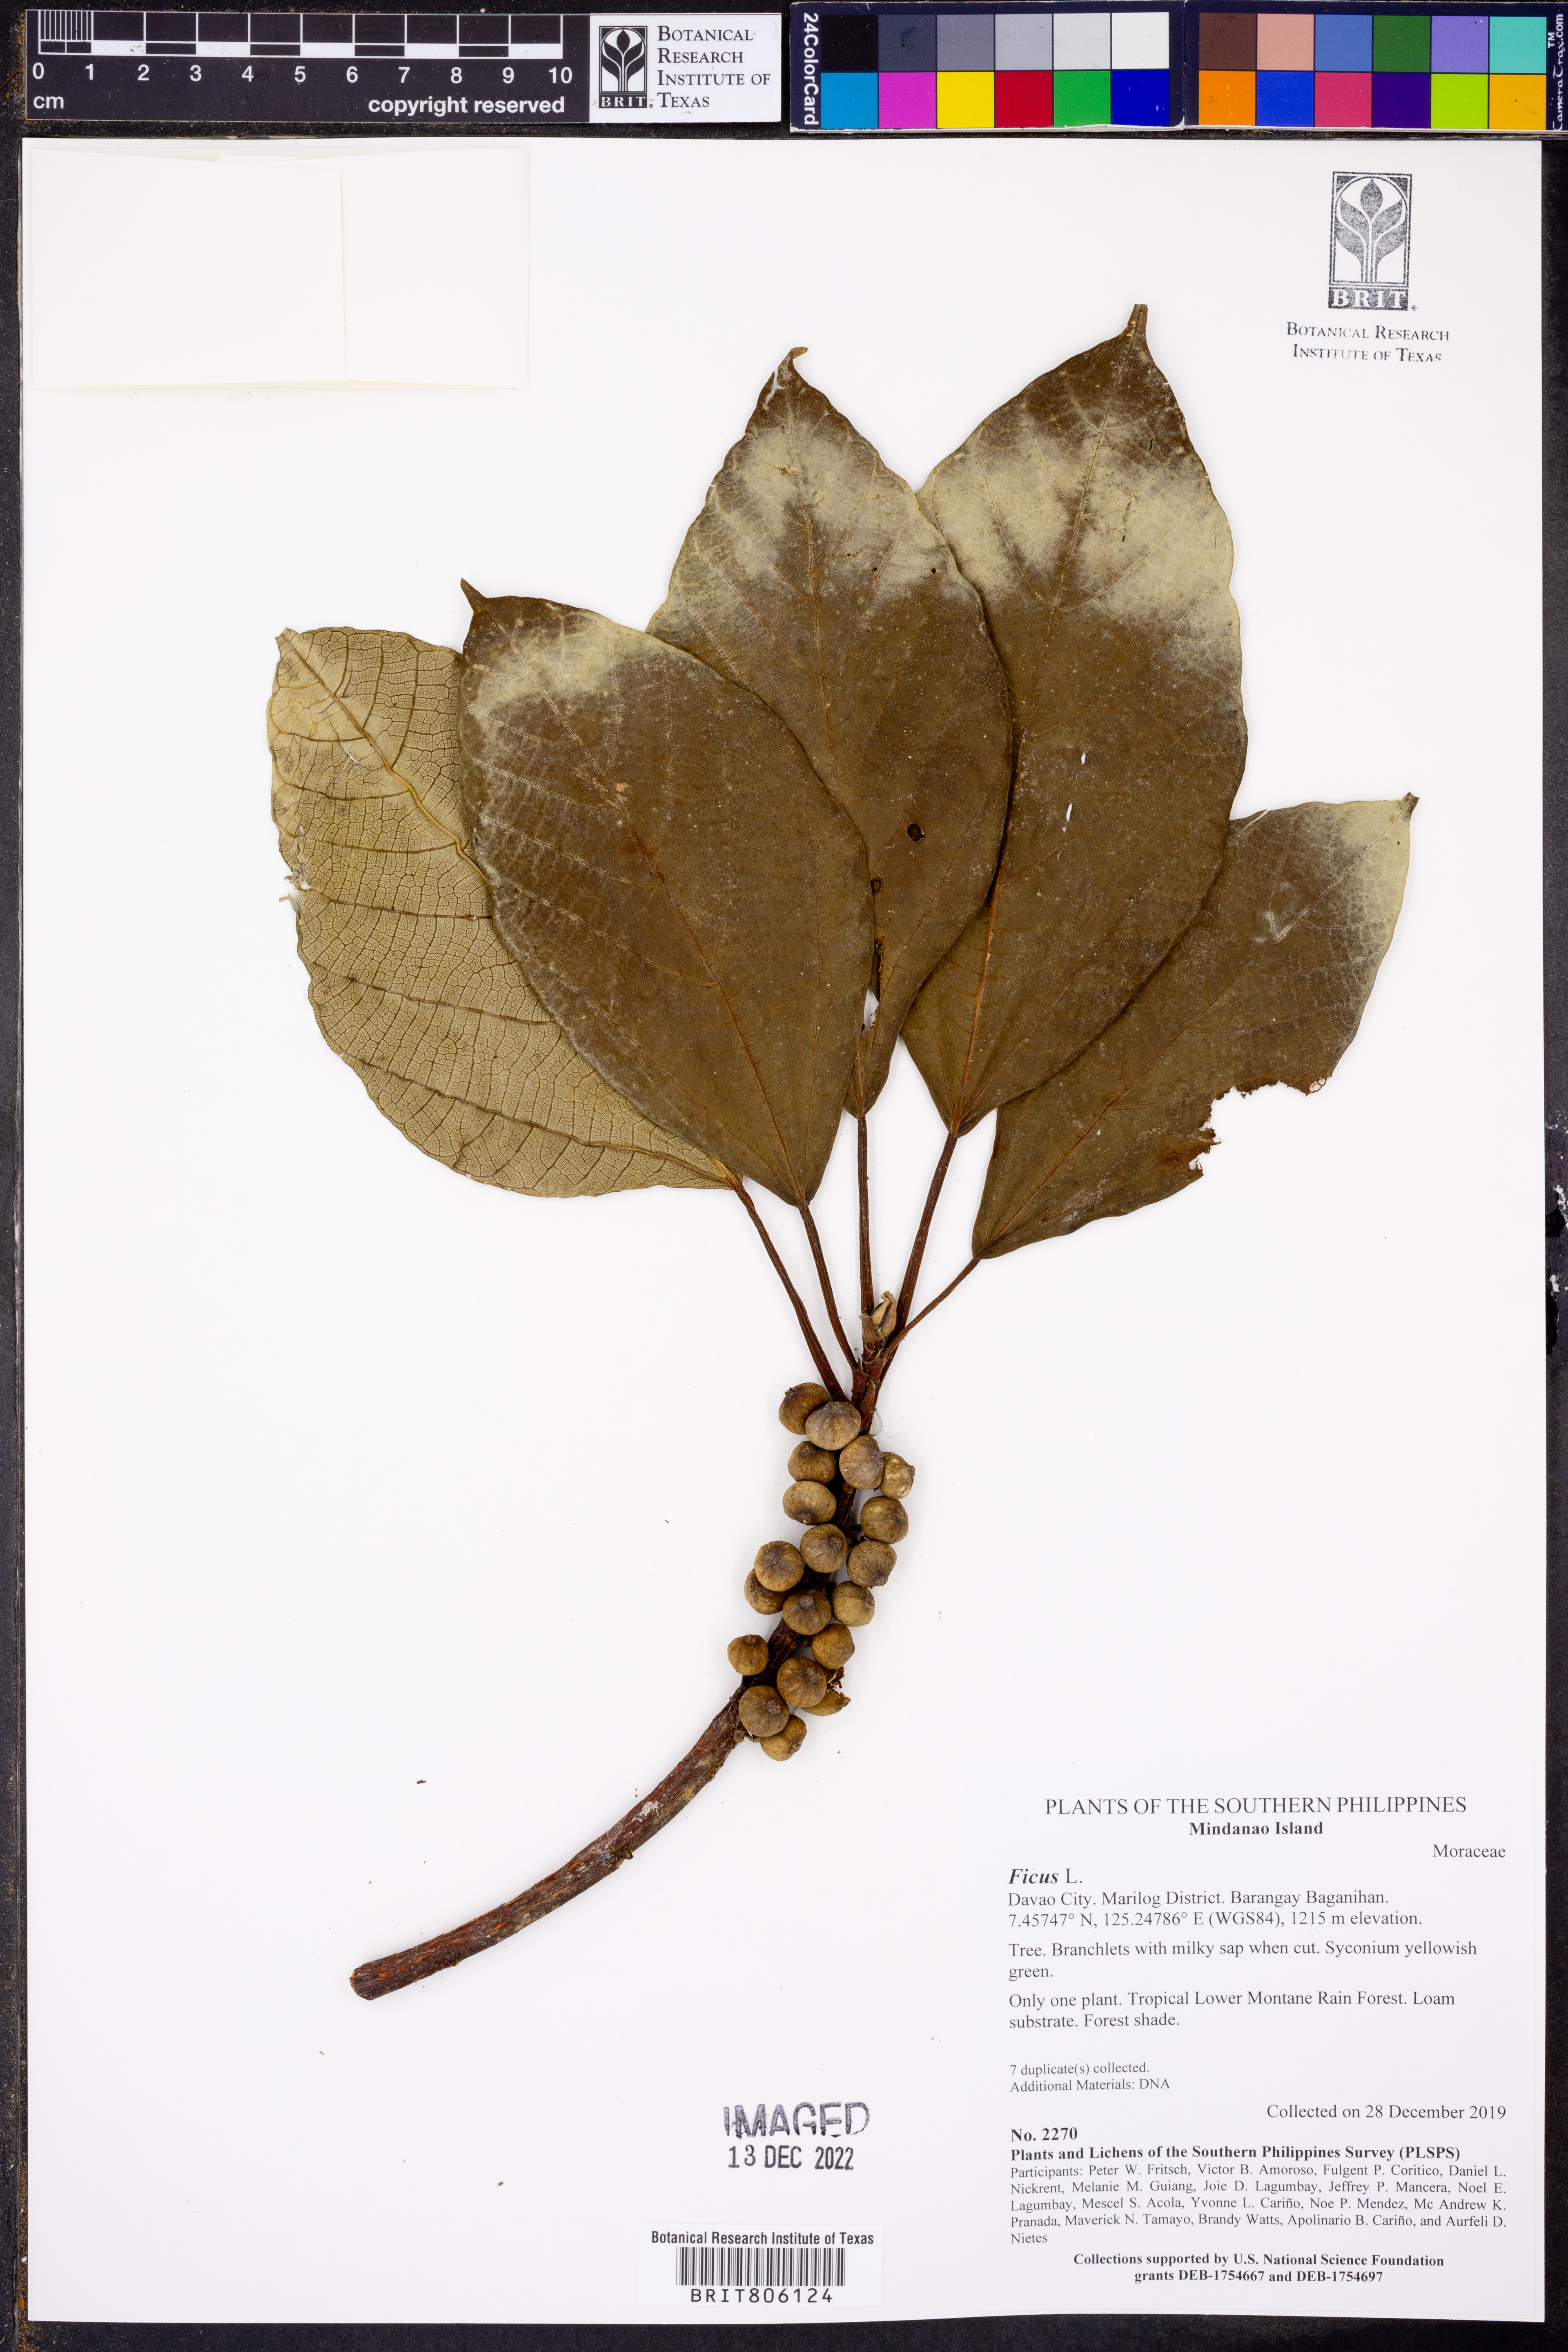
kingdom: Plantae
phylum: Tracheophyta
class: Magnoliopsida
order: Rosales
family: Moraceae
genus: Ficus
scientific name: Ficus
